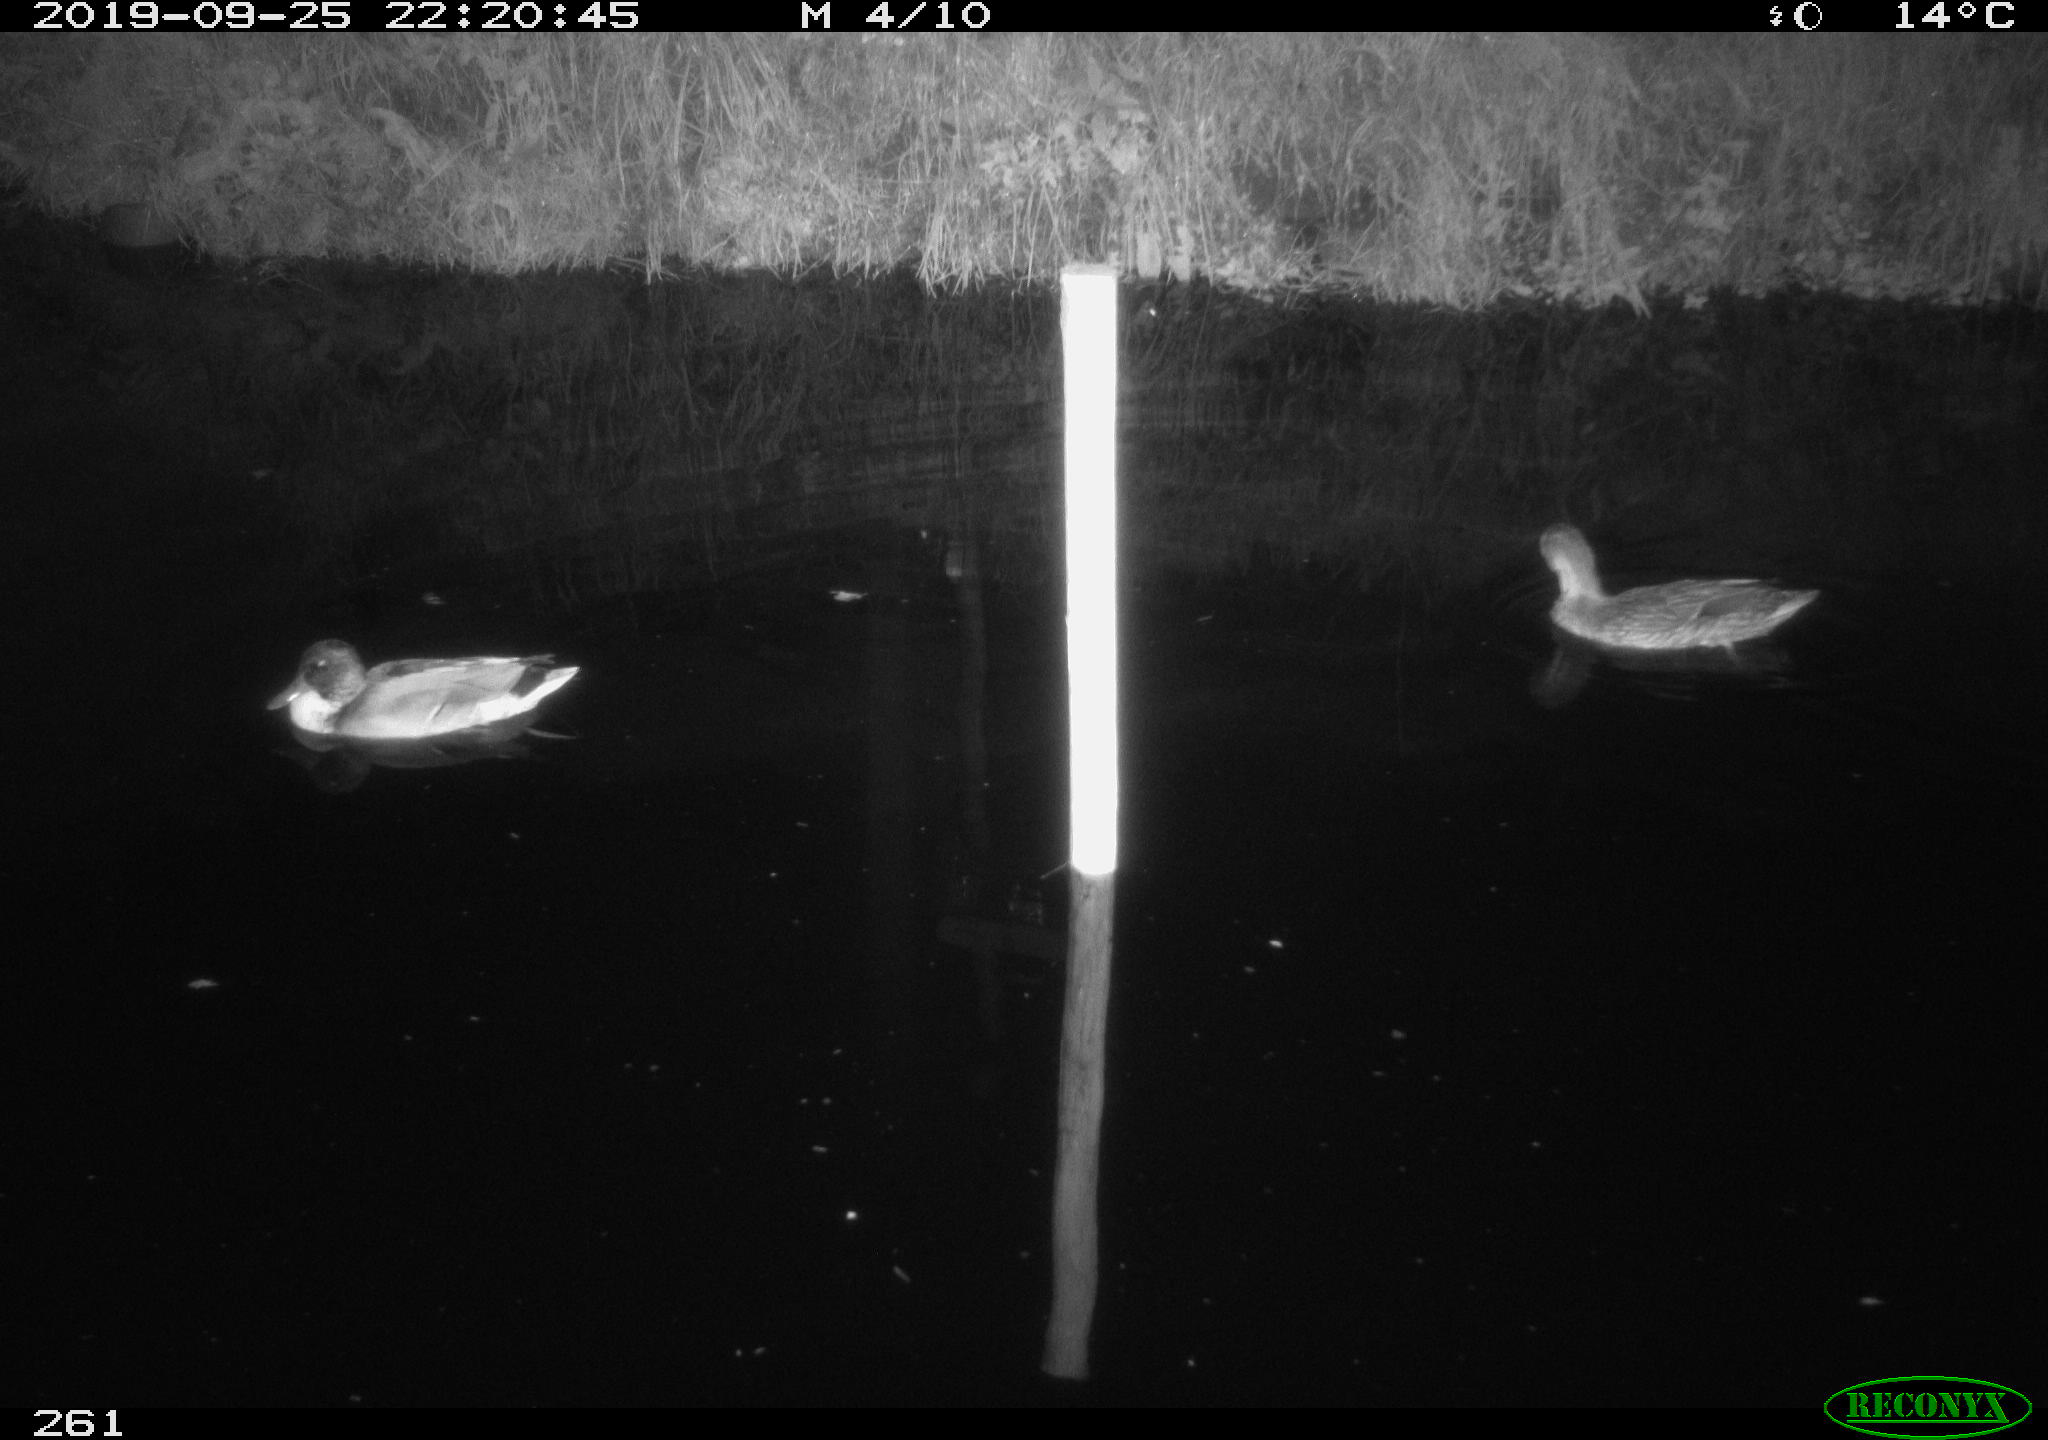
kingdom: Animalia
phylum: Chordata
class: Aves
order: Anseriformes
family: Anatidae
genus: Anas
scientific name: Anas platyrhynchos
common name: Mallard
